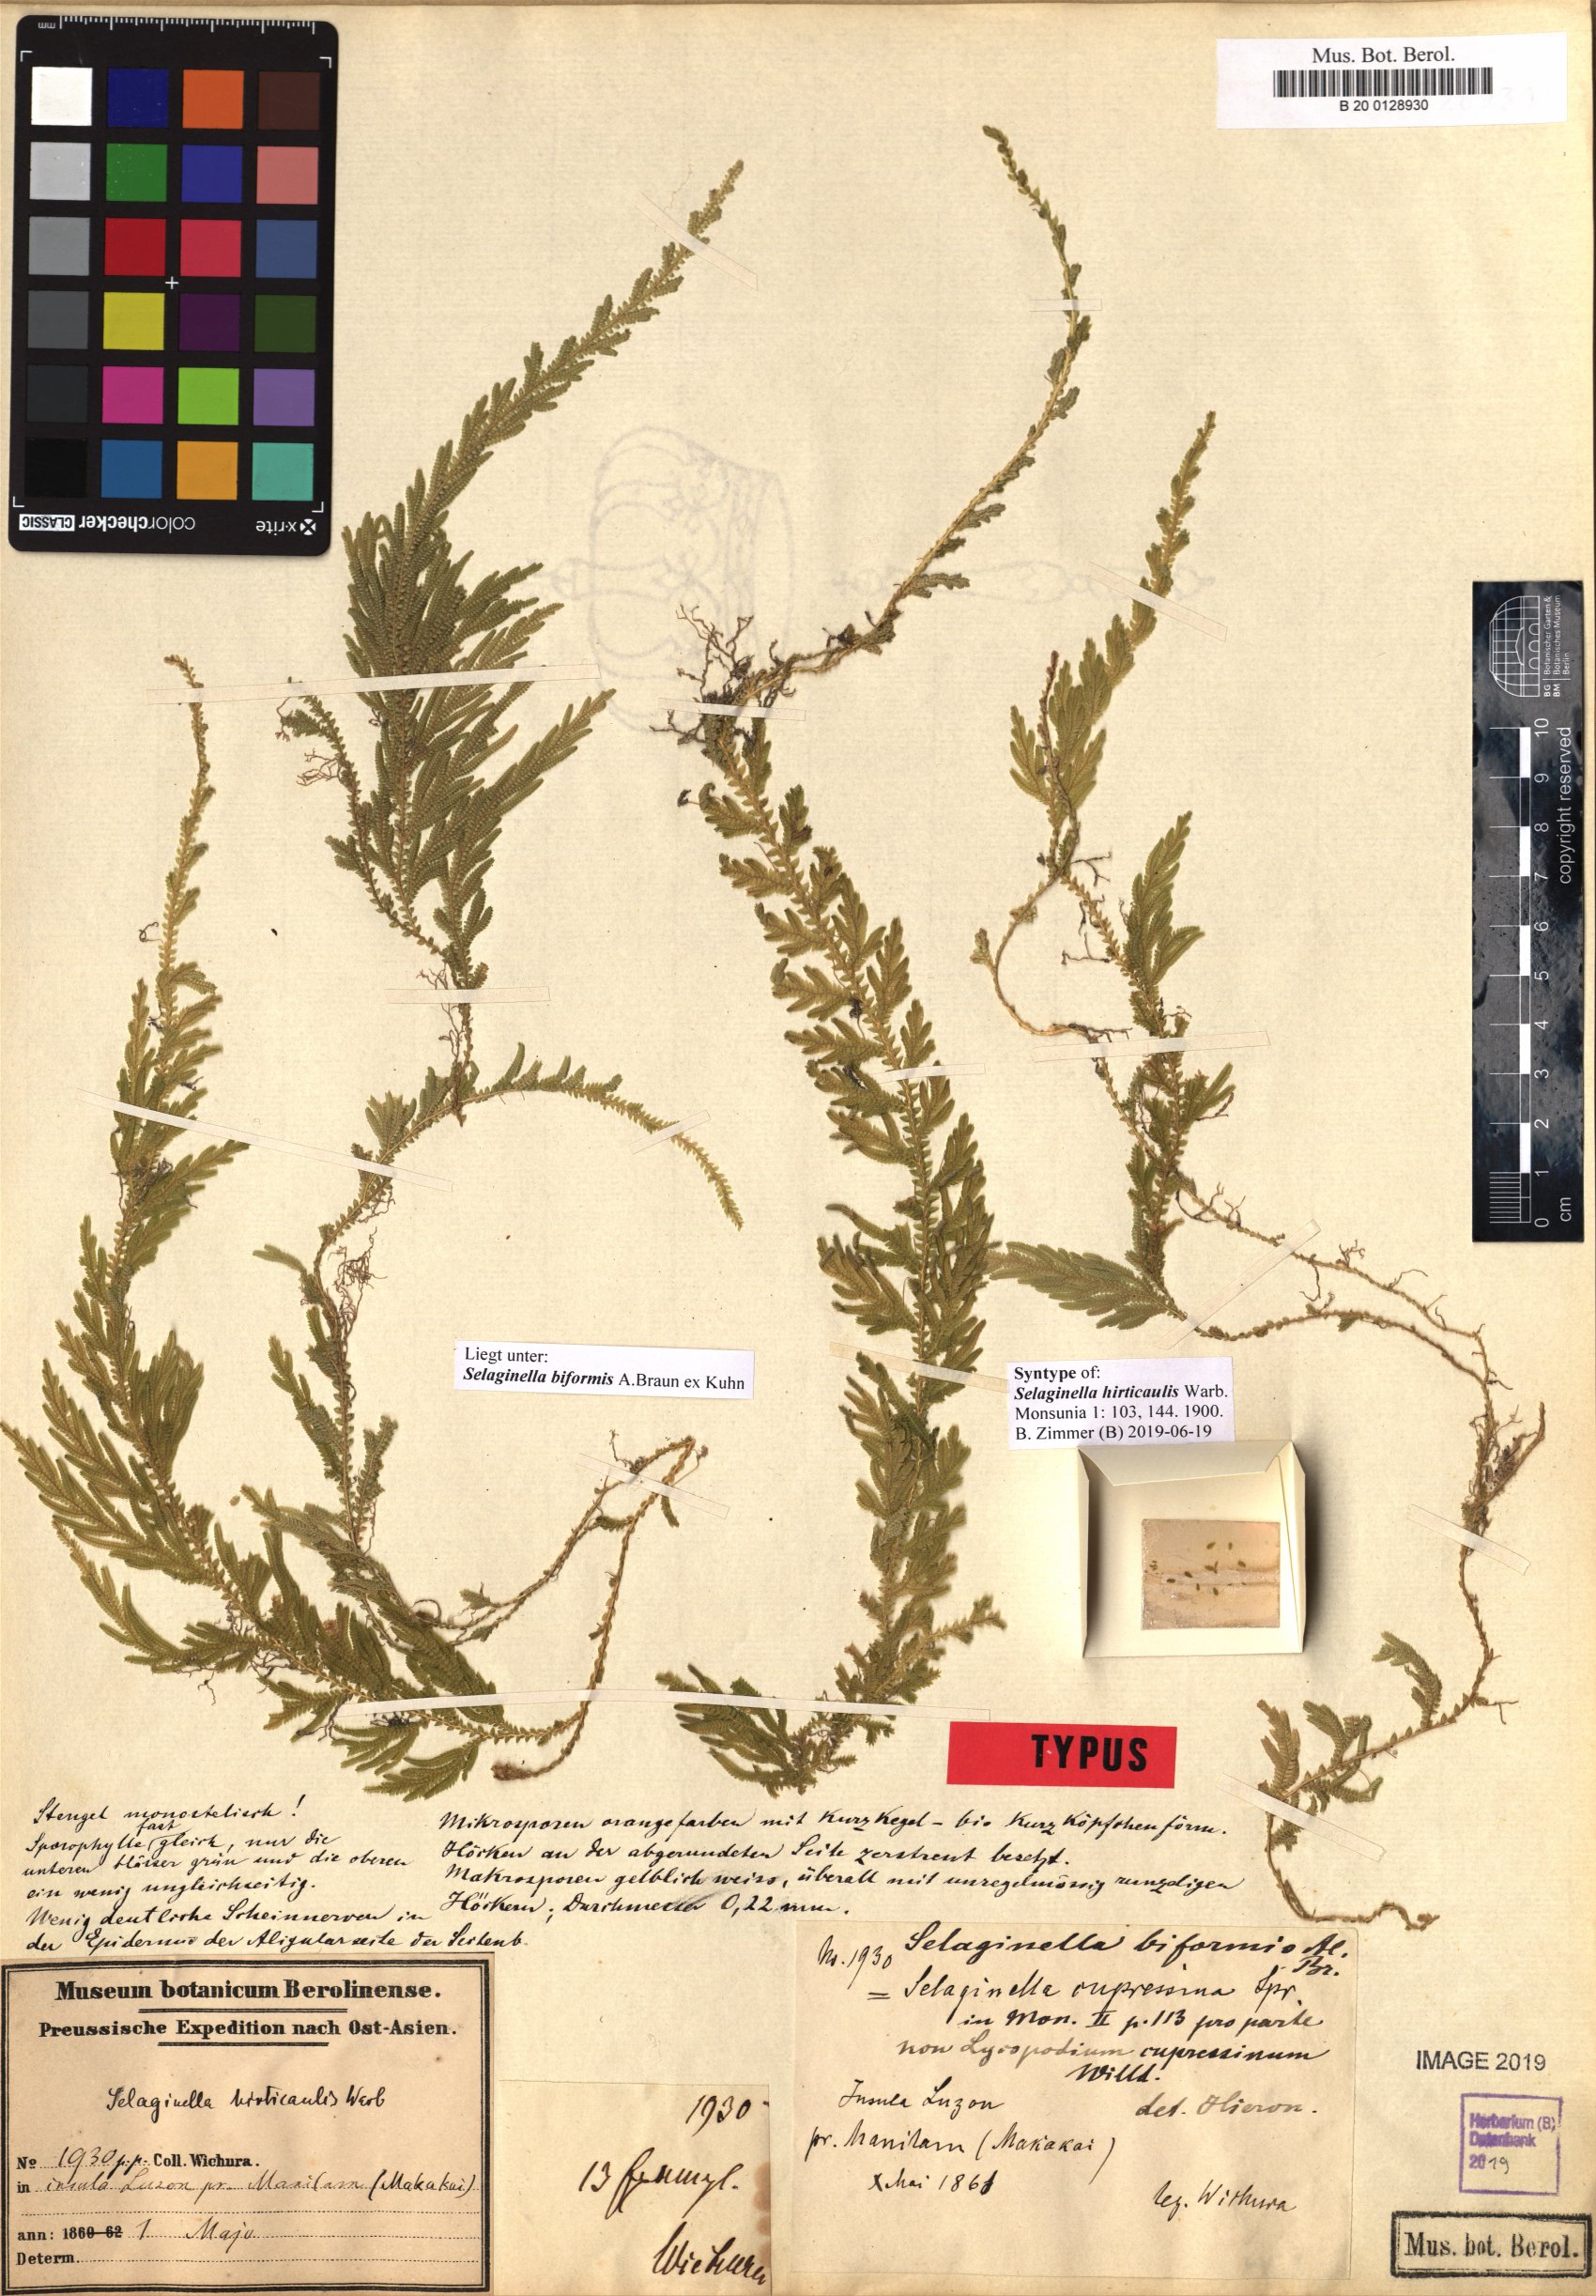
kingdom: Plantae
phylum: Tracheophyta
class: Lycopodiopsida
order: Selaginellales
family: Selaginellaceae
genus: Selaginella
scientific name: Selaginella biformis
